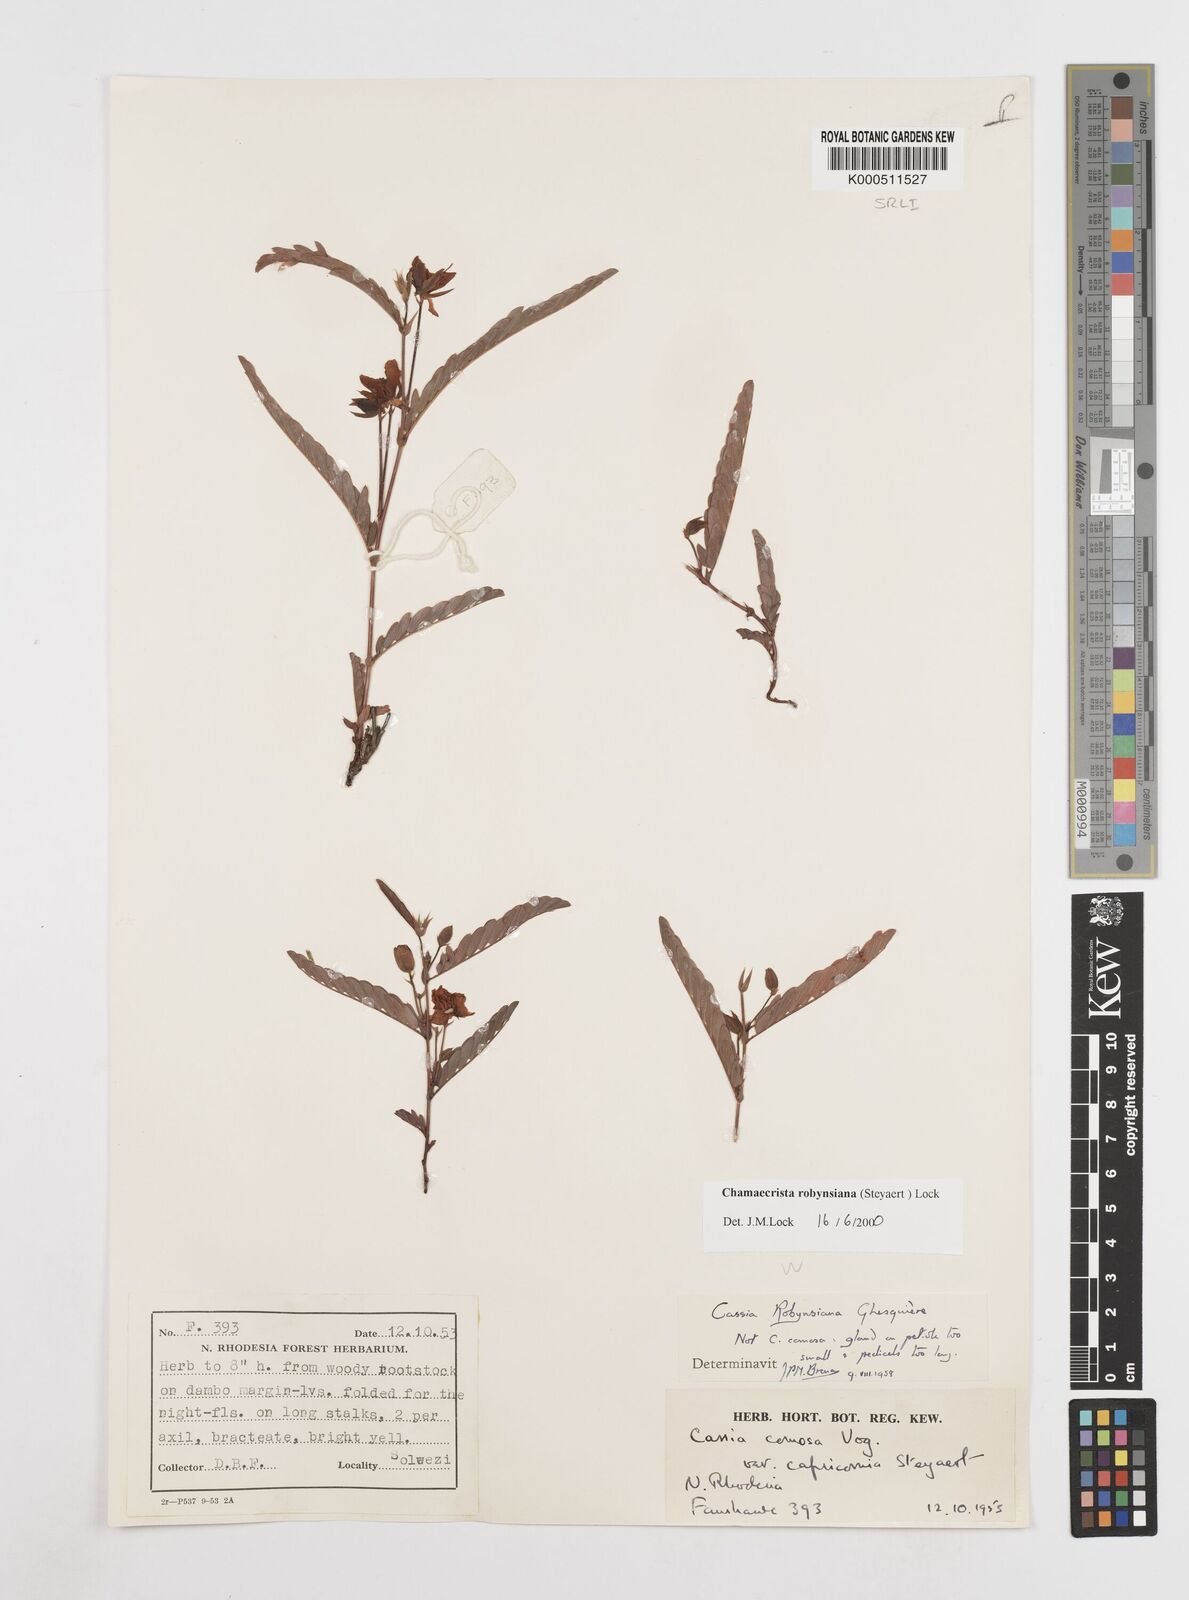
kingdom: Plantae
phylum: Tracheophyta
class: Magnoliopsida
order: Fabales
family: Fabaceae
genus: Chamaecrista
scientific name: Chamaecrista robynsiana
